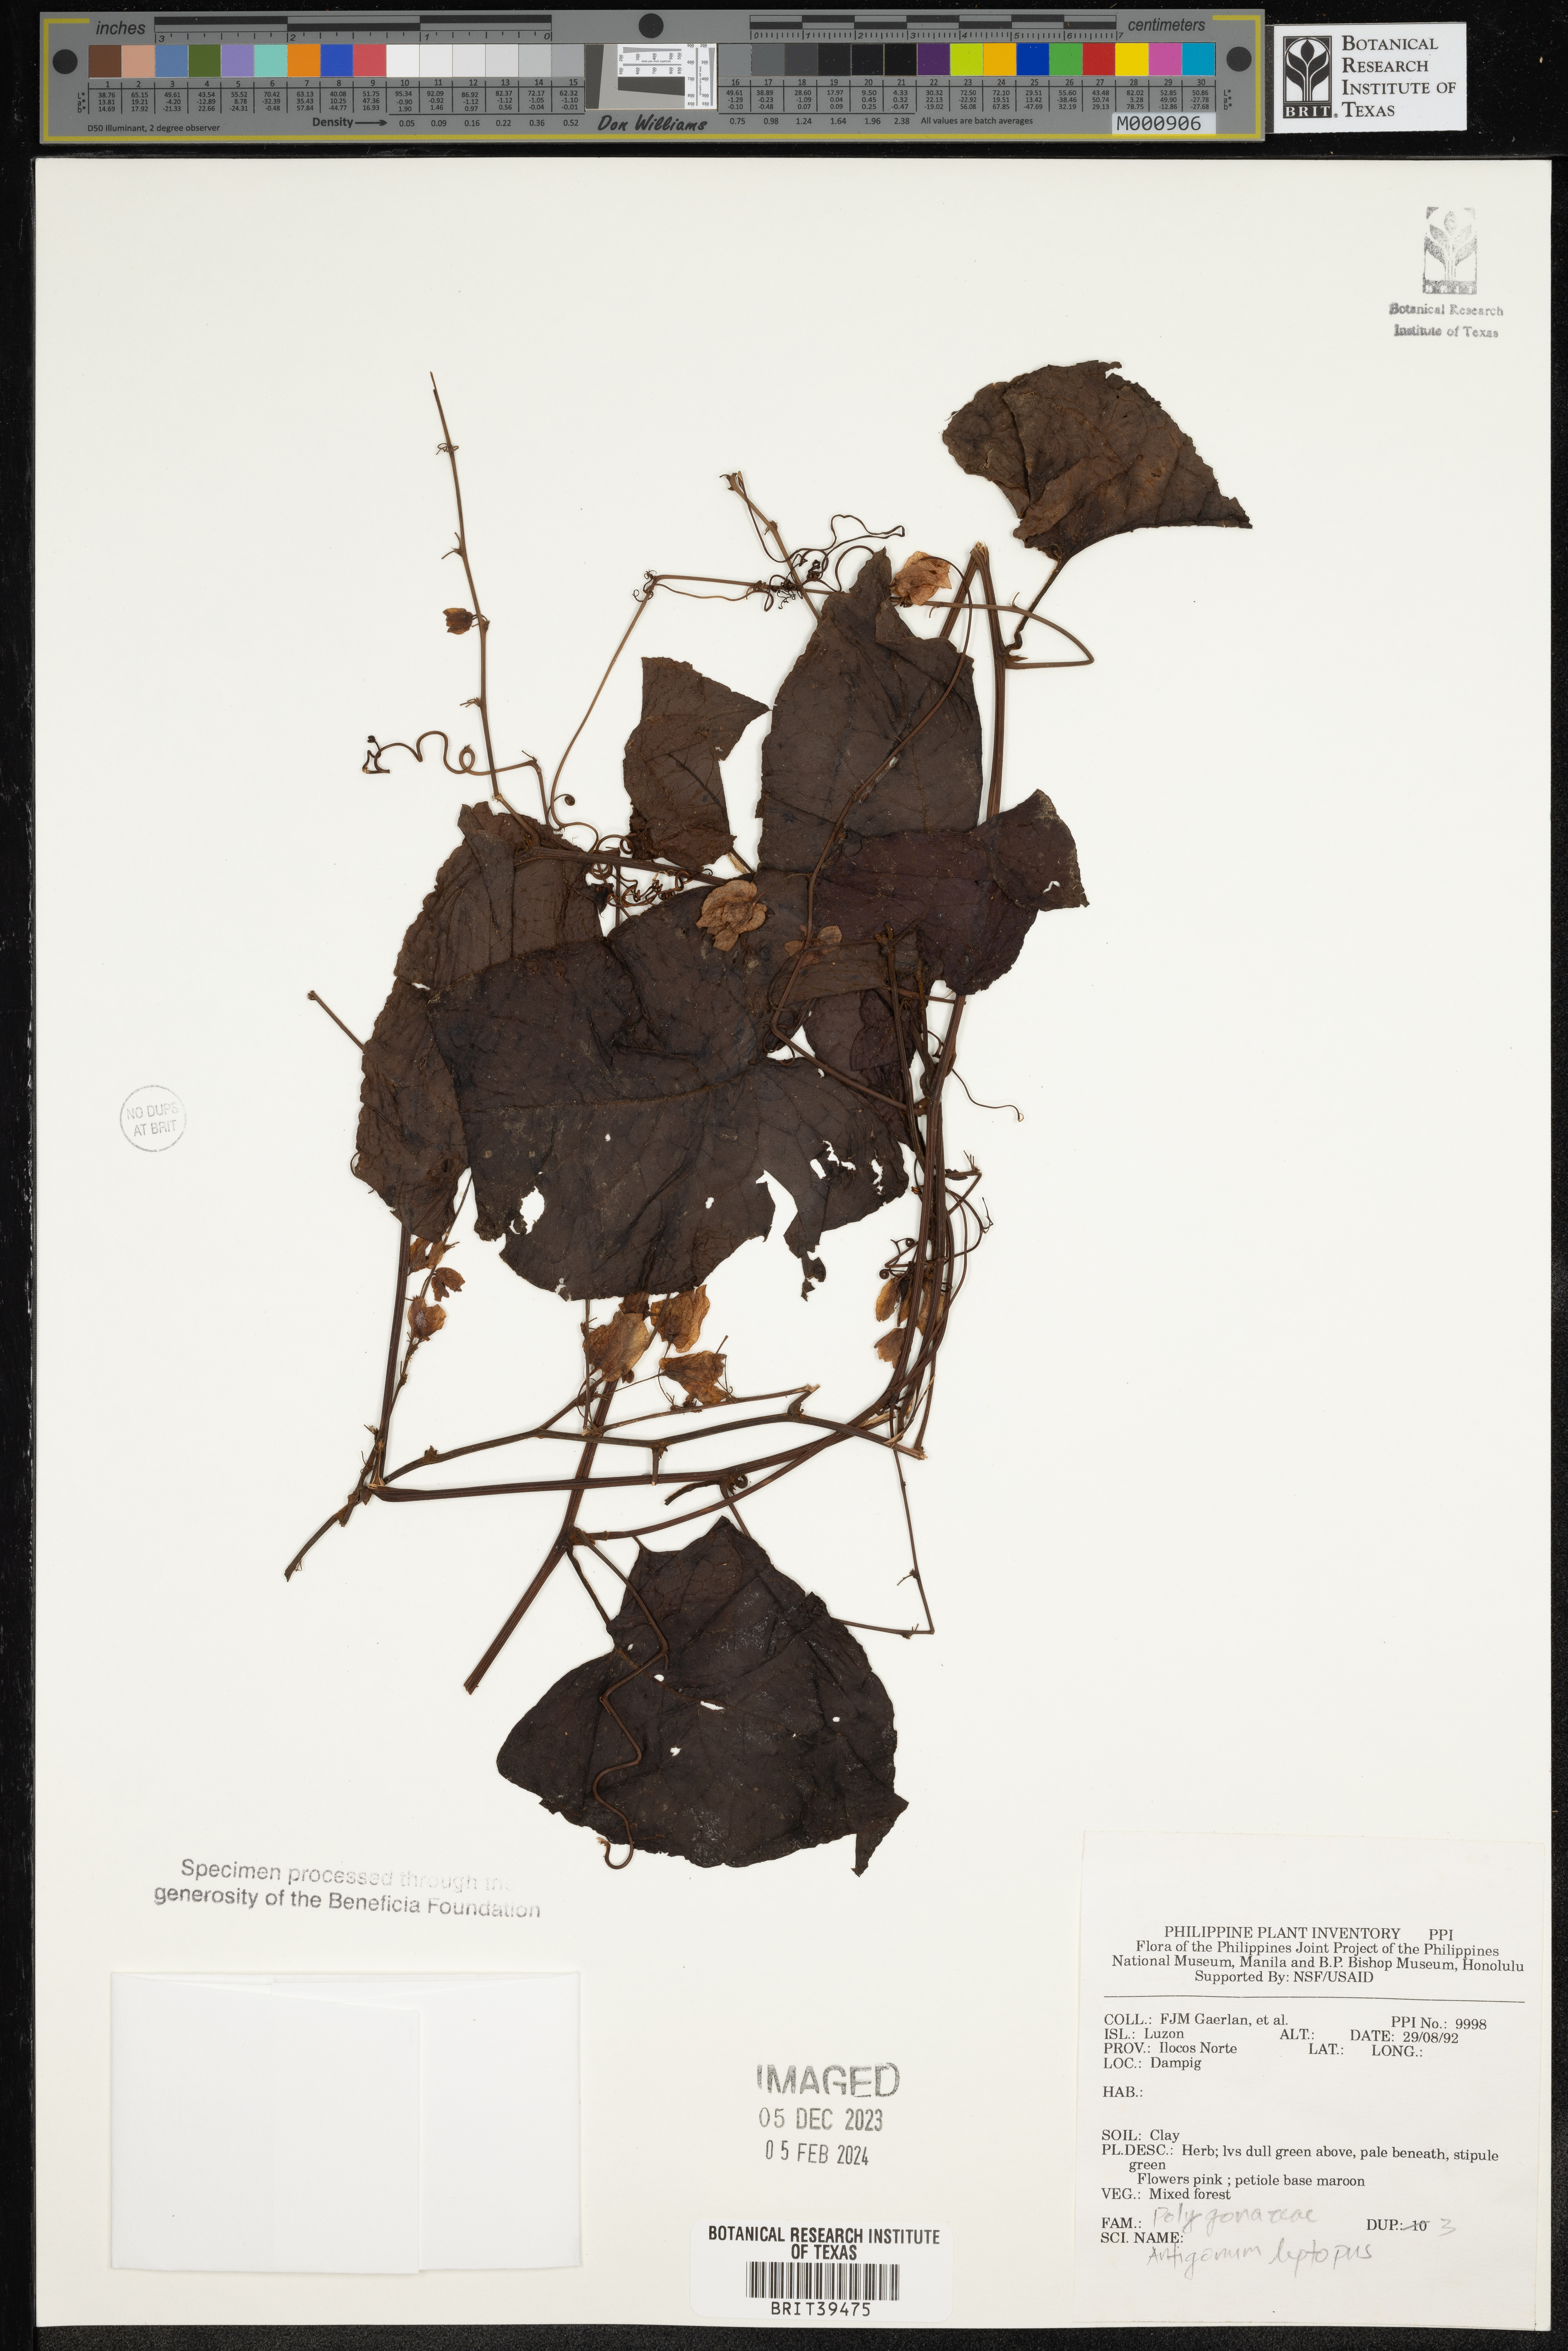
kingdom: Plantae
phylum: Tracheophyta
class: Magnoliopsida
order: Caryophyllales
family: Polygonaceae
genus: Antigonon
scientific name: Antigonon leptopus
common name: Coral vine
